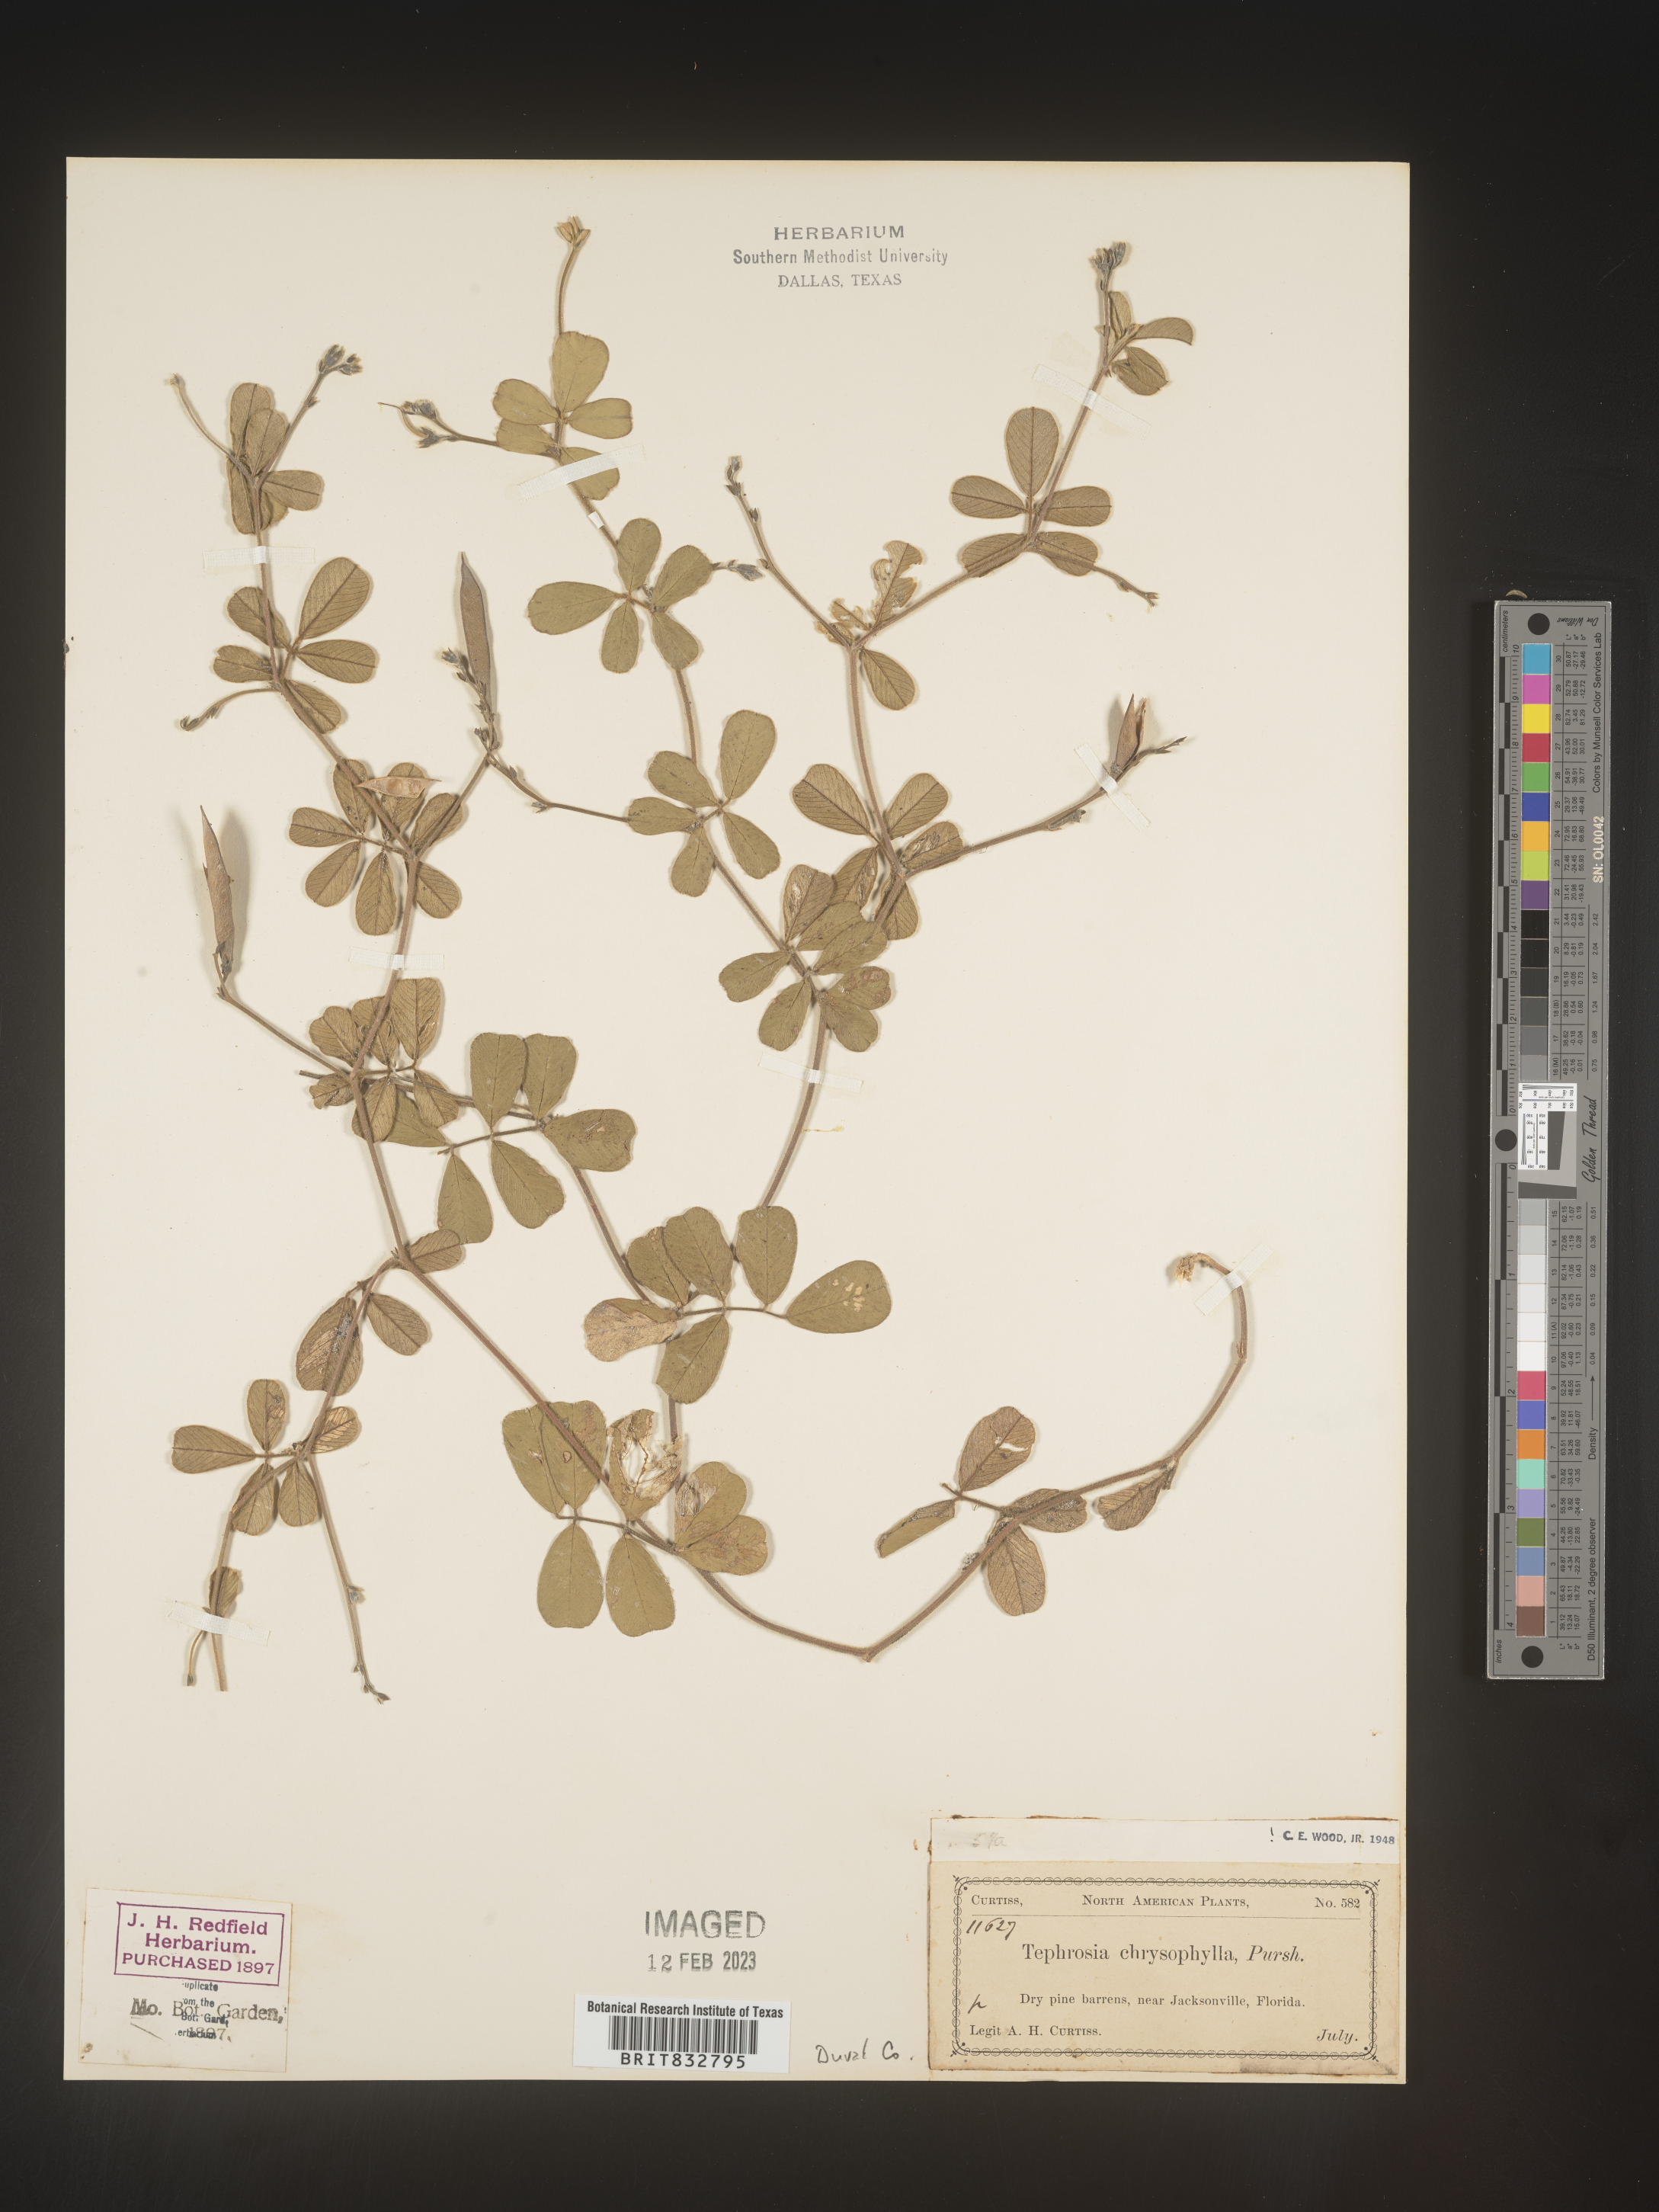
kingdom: Plantae
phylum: Tracheophyta
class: Magnoliopsida
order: Fabales
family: Fabaceae
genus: Tephrosia
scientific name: Tephrosia chrysophylla
